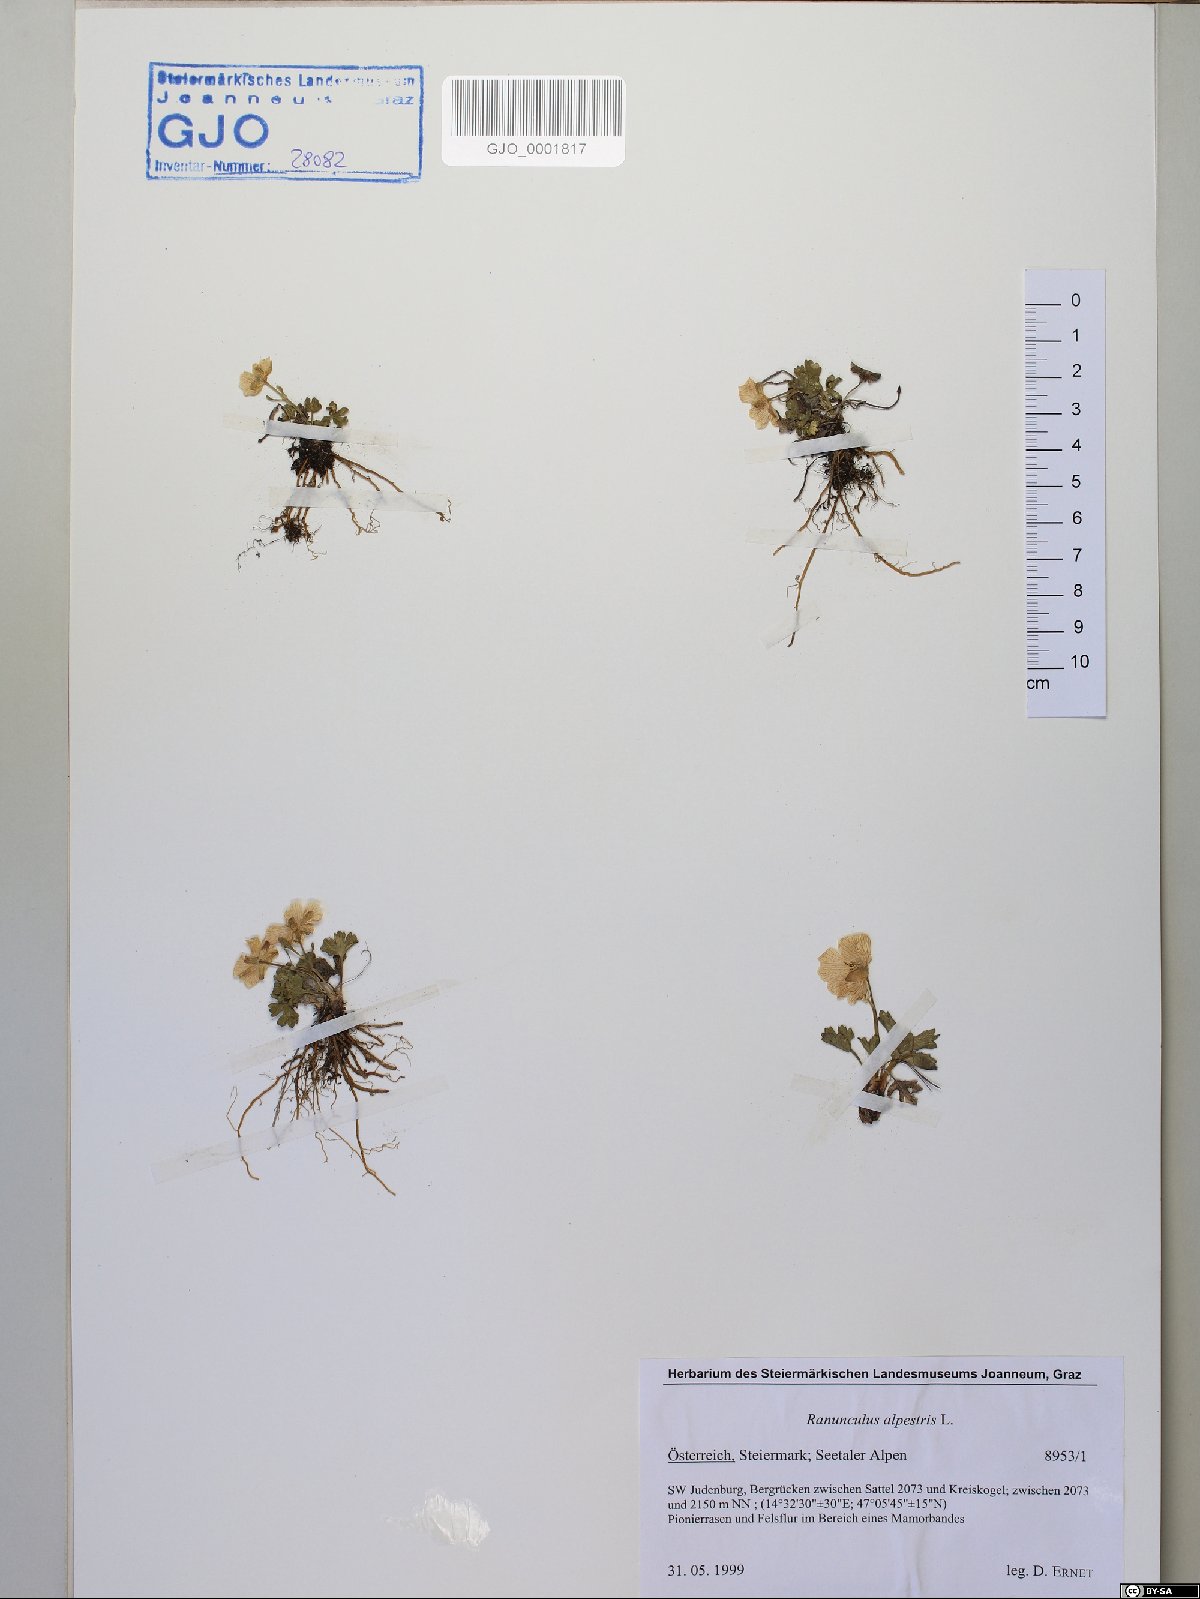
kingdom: Plantae
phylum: Tracheophyta
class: Magnoliopsida
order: Ranunculales
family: Ranunculaceae
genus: Ranunculus
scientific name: Ranunculus alpestris
